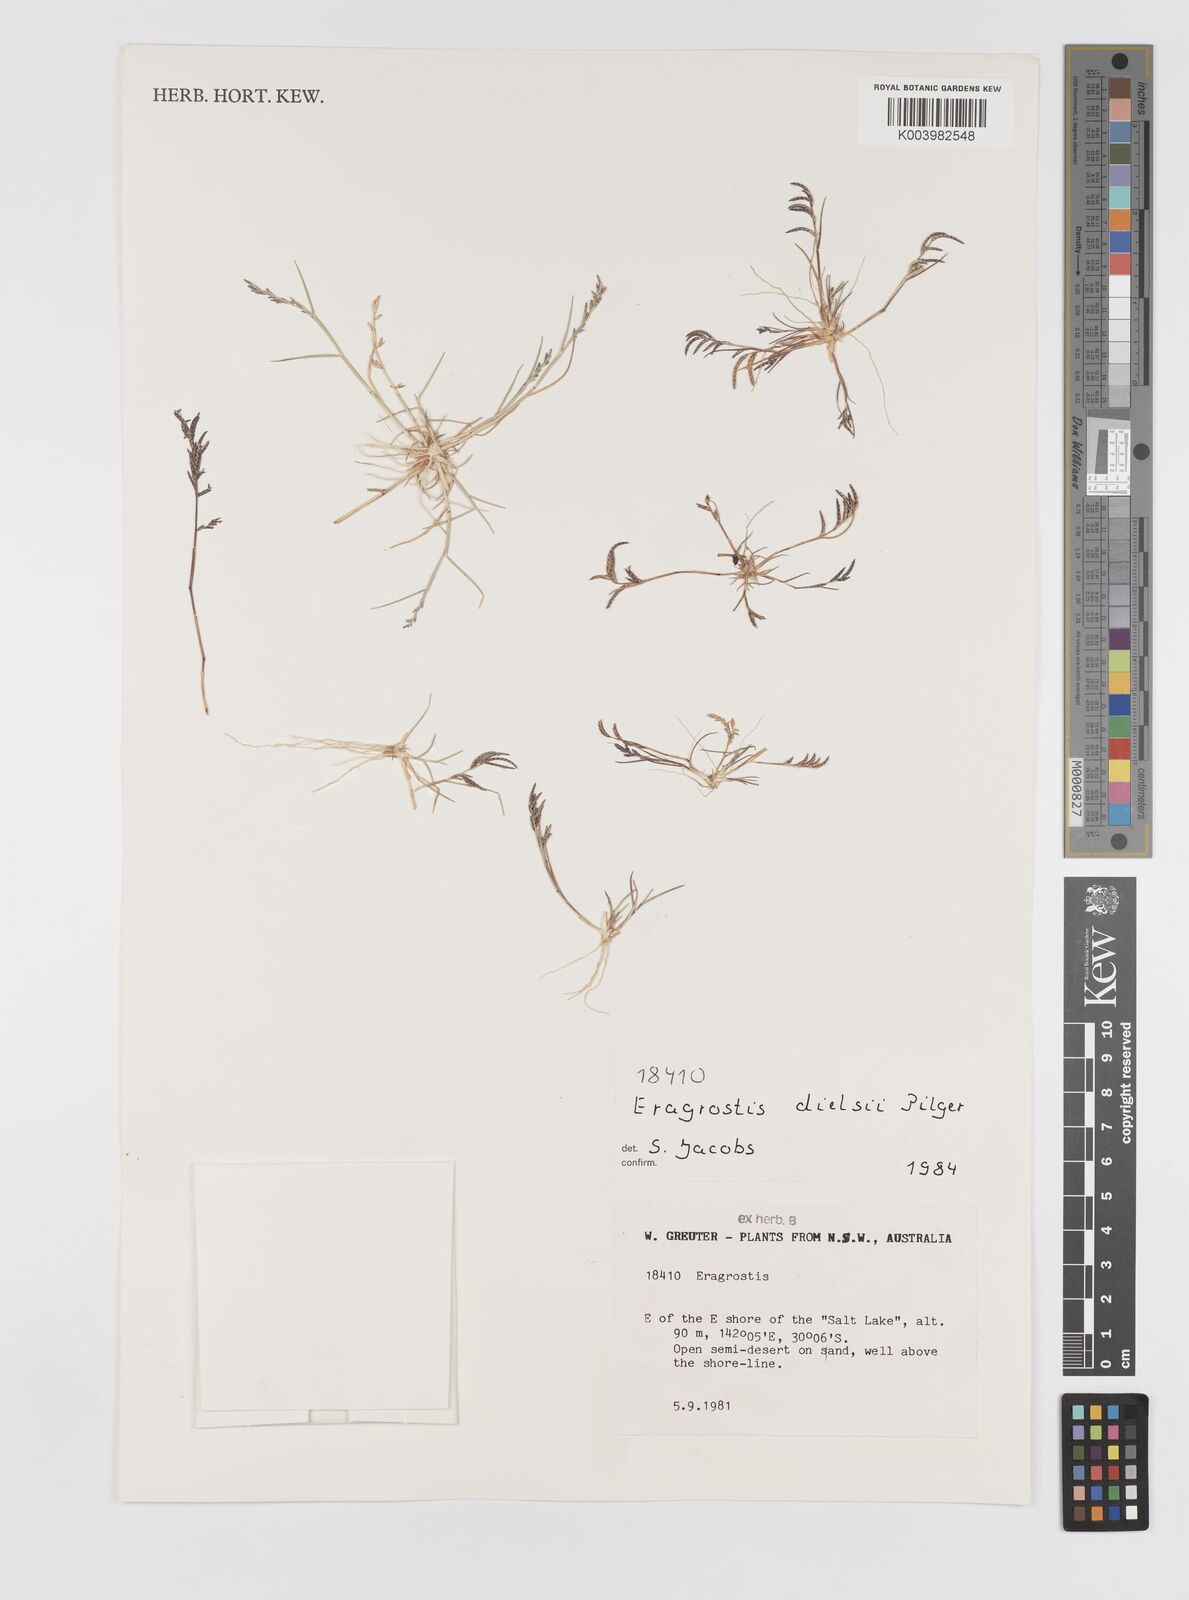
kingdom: Plantae
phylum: Tracheophyta
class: Liliopsida
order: Poales
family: Poaceae
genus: Eragrostis
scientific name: Eragrostis dielsii
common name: Lovegrass
